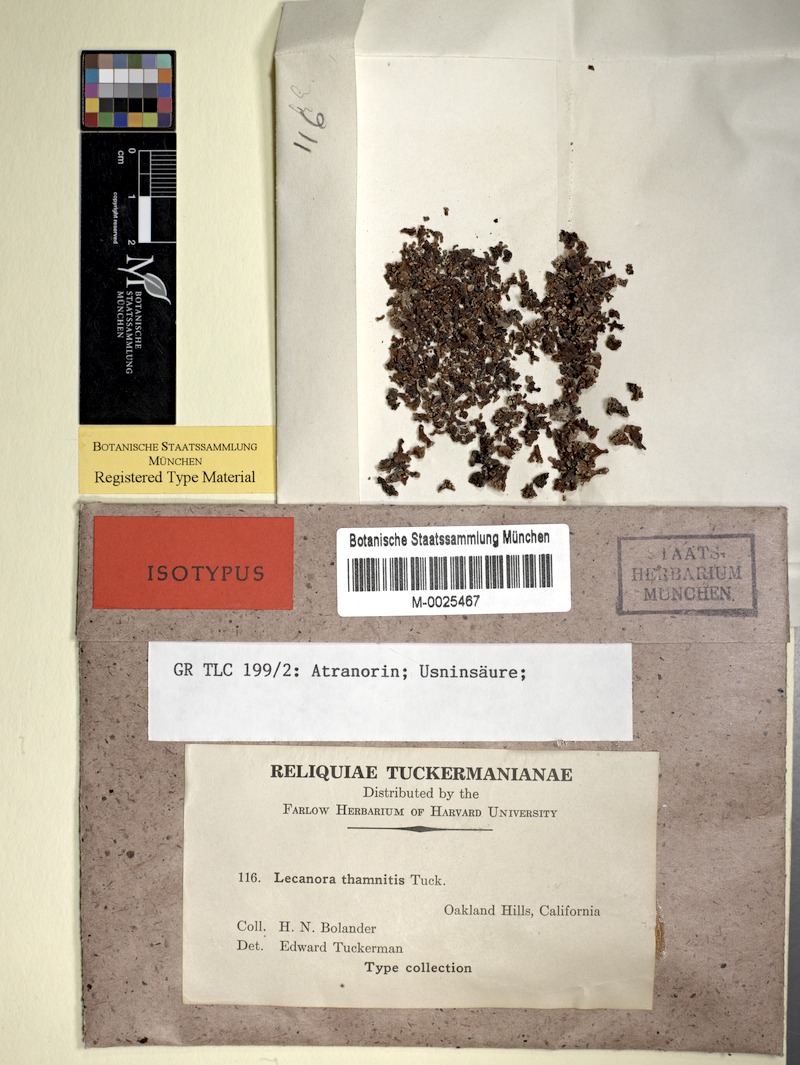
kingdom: Fungi
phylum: Ascomycota
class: Lecanoromycetes
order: Lecanorales
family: Lecanoraceae
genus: Cladidium
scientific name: Cladidium thamnitis
